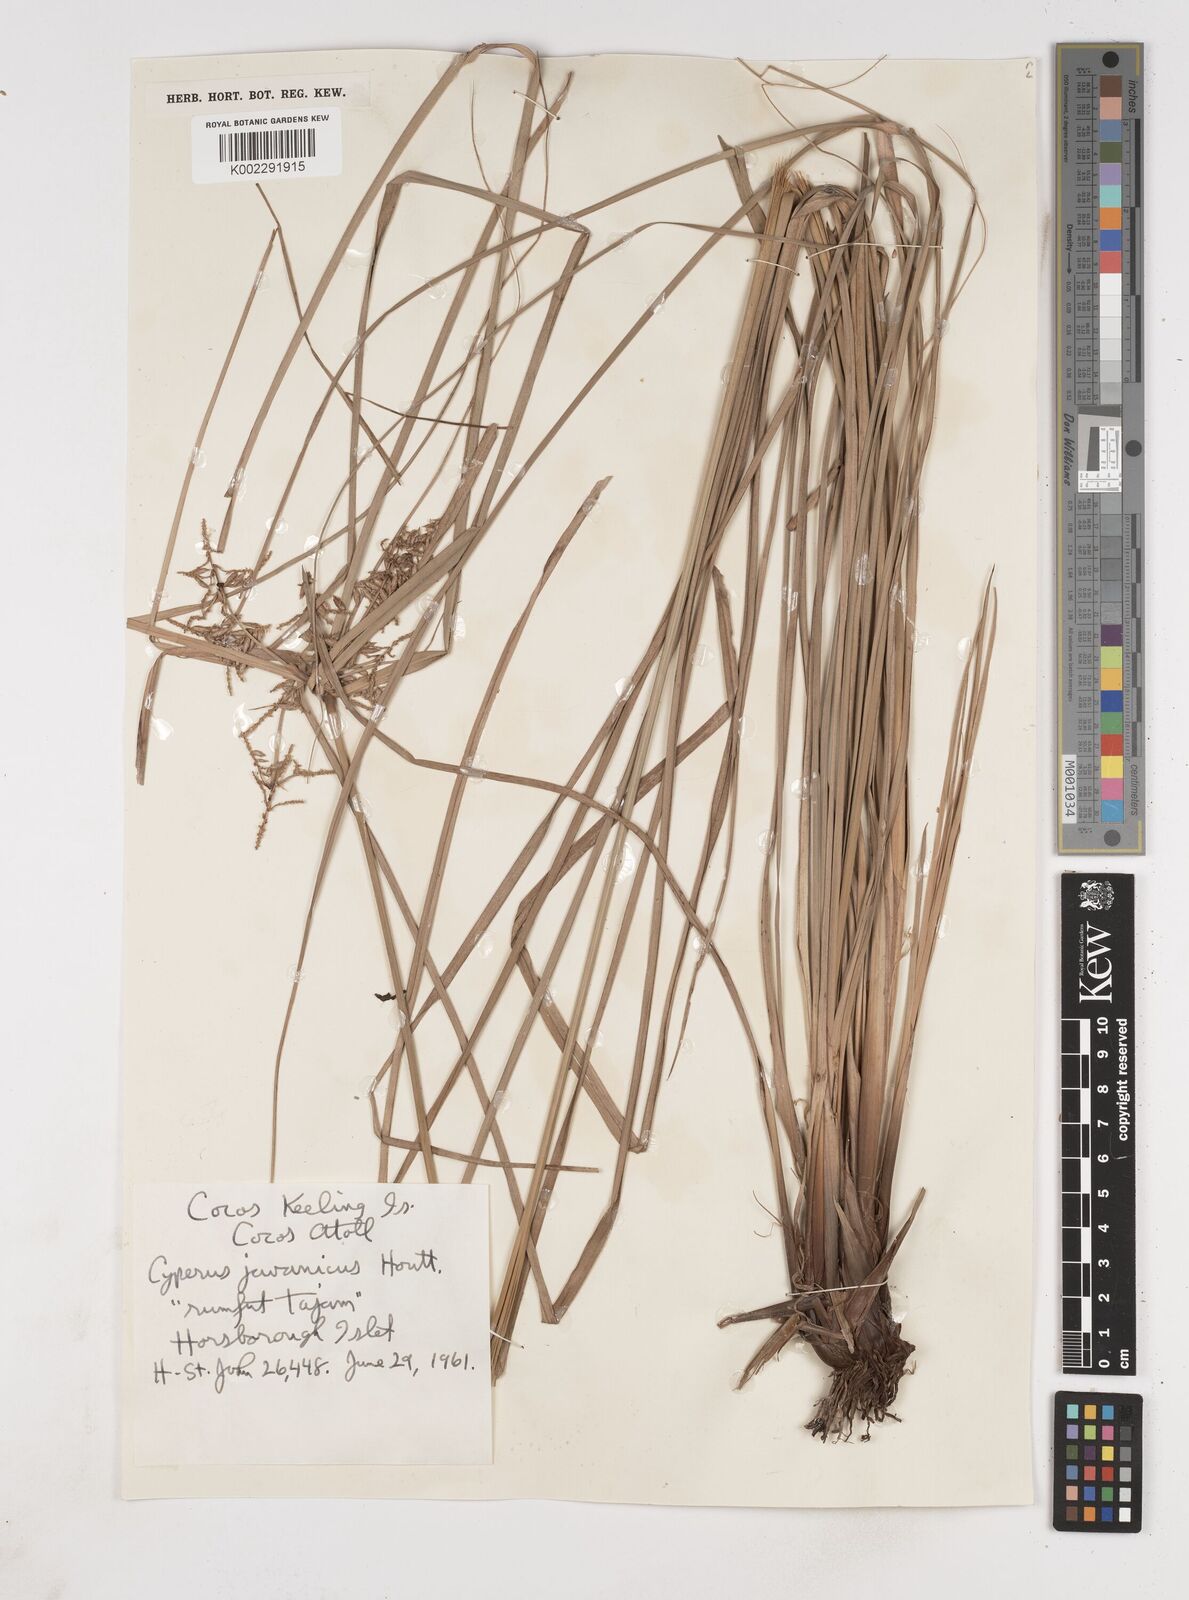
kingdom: Plantae
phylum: Tracheophyta
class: Liliopsida
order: Poales
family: Cyperaceae
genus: Cyperus
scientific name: Cyperus javanicus
